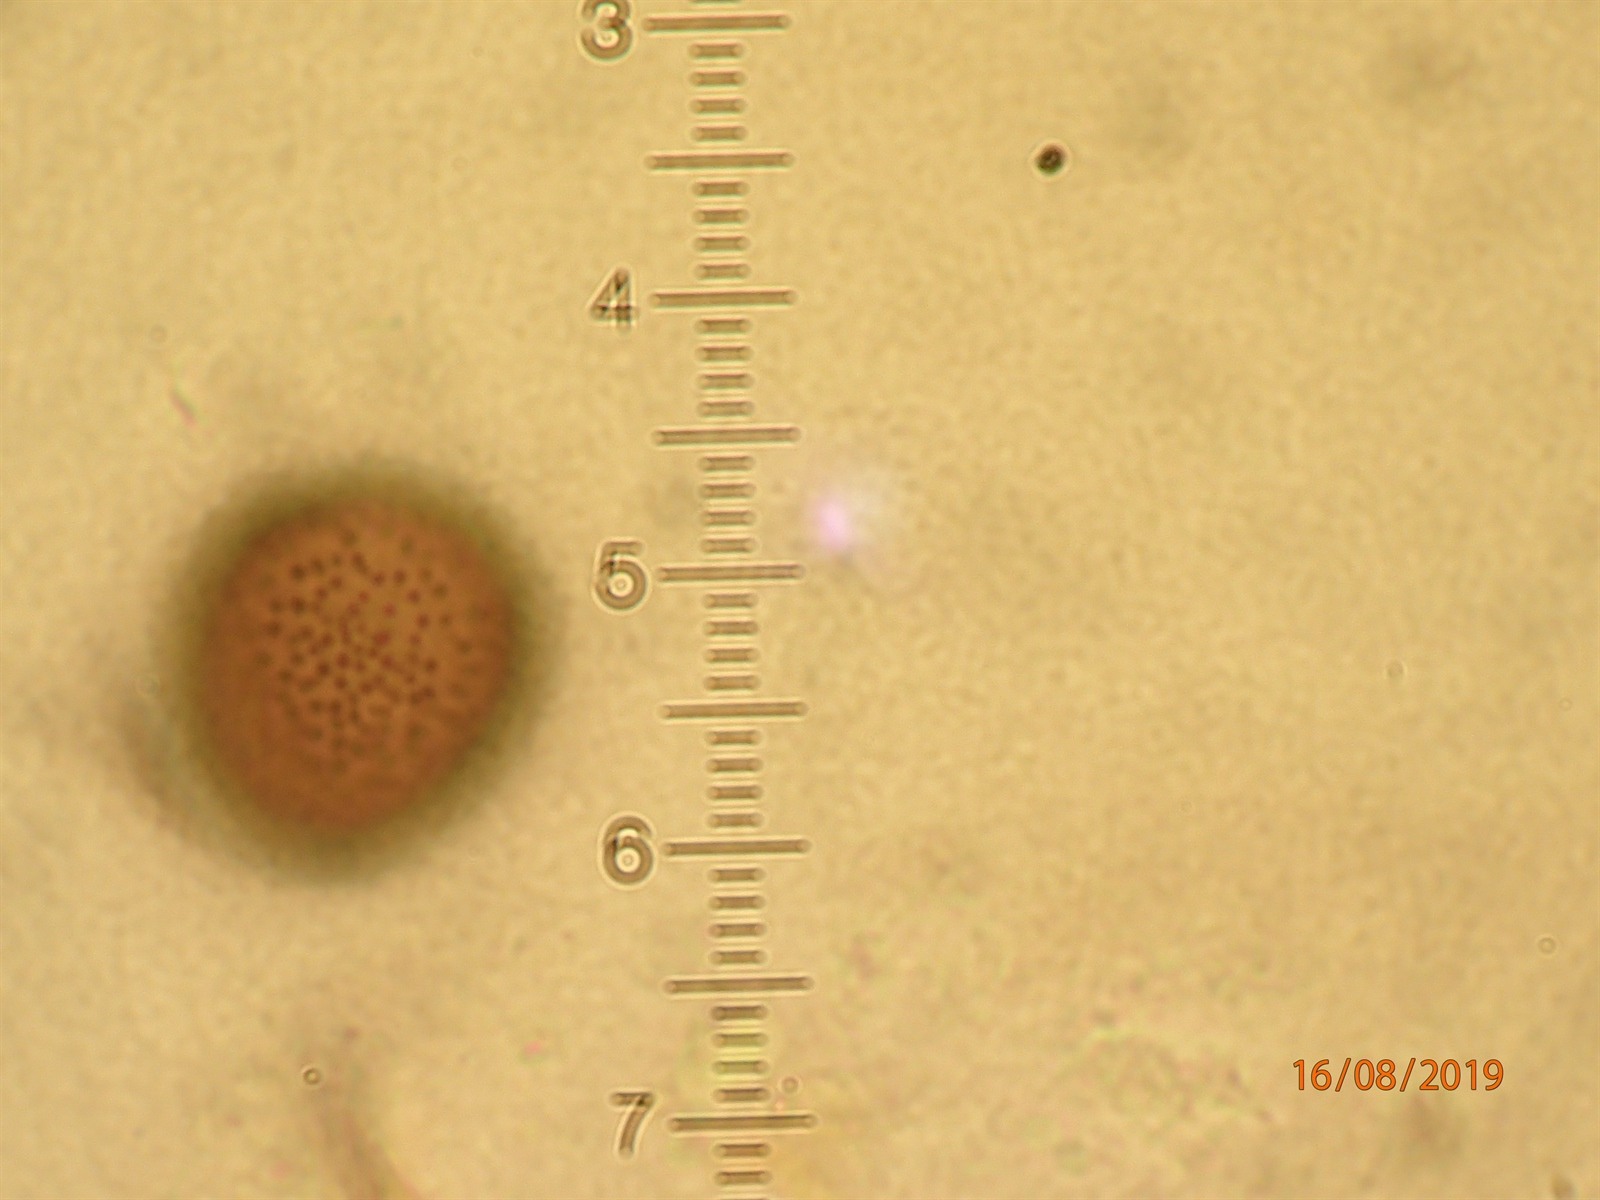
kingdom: Protozoa
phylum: Mycetozoa
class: Myxomycetes
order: Physarales
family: Didymiaceae
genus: Diderma
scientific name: Diderma
